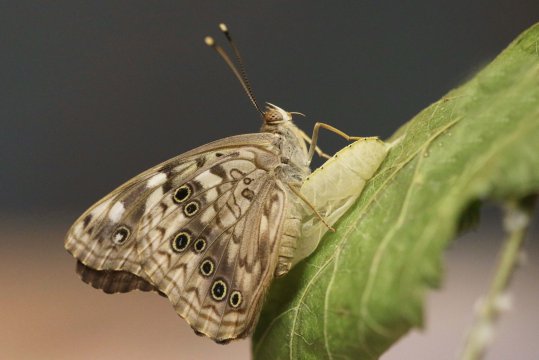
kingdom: Animalia
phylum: Arthropoda
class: Insecta
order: Lepidoptera
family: Nymphalidae
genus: Asterocampa
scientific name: Asterocampa celtis
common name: Hackberry Emperor
